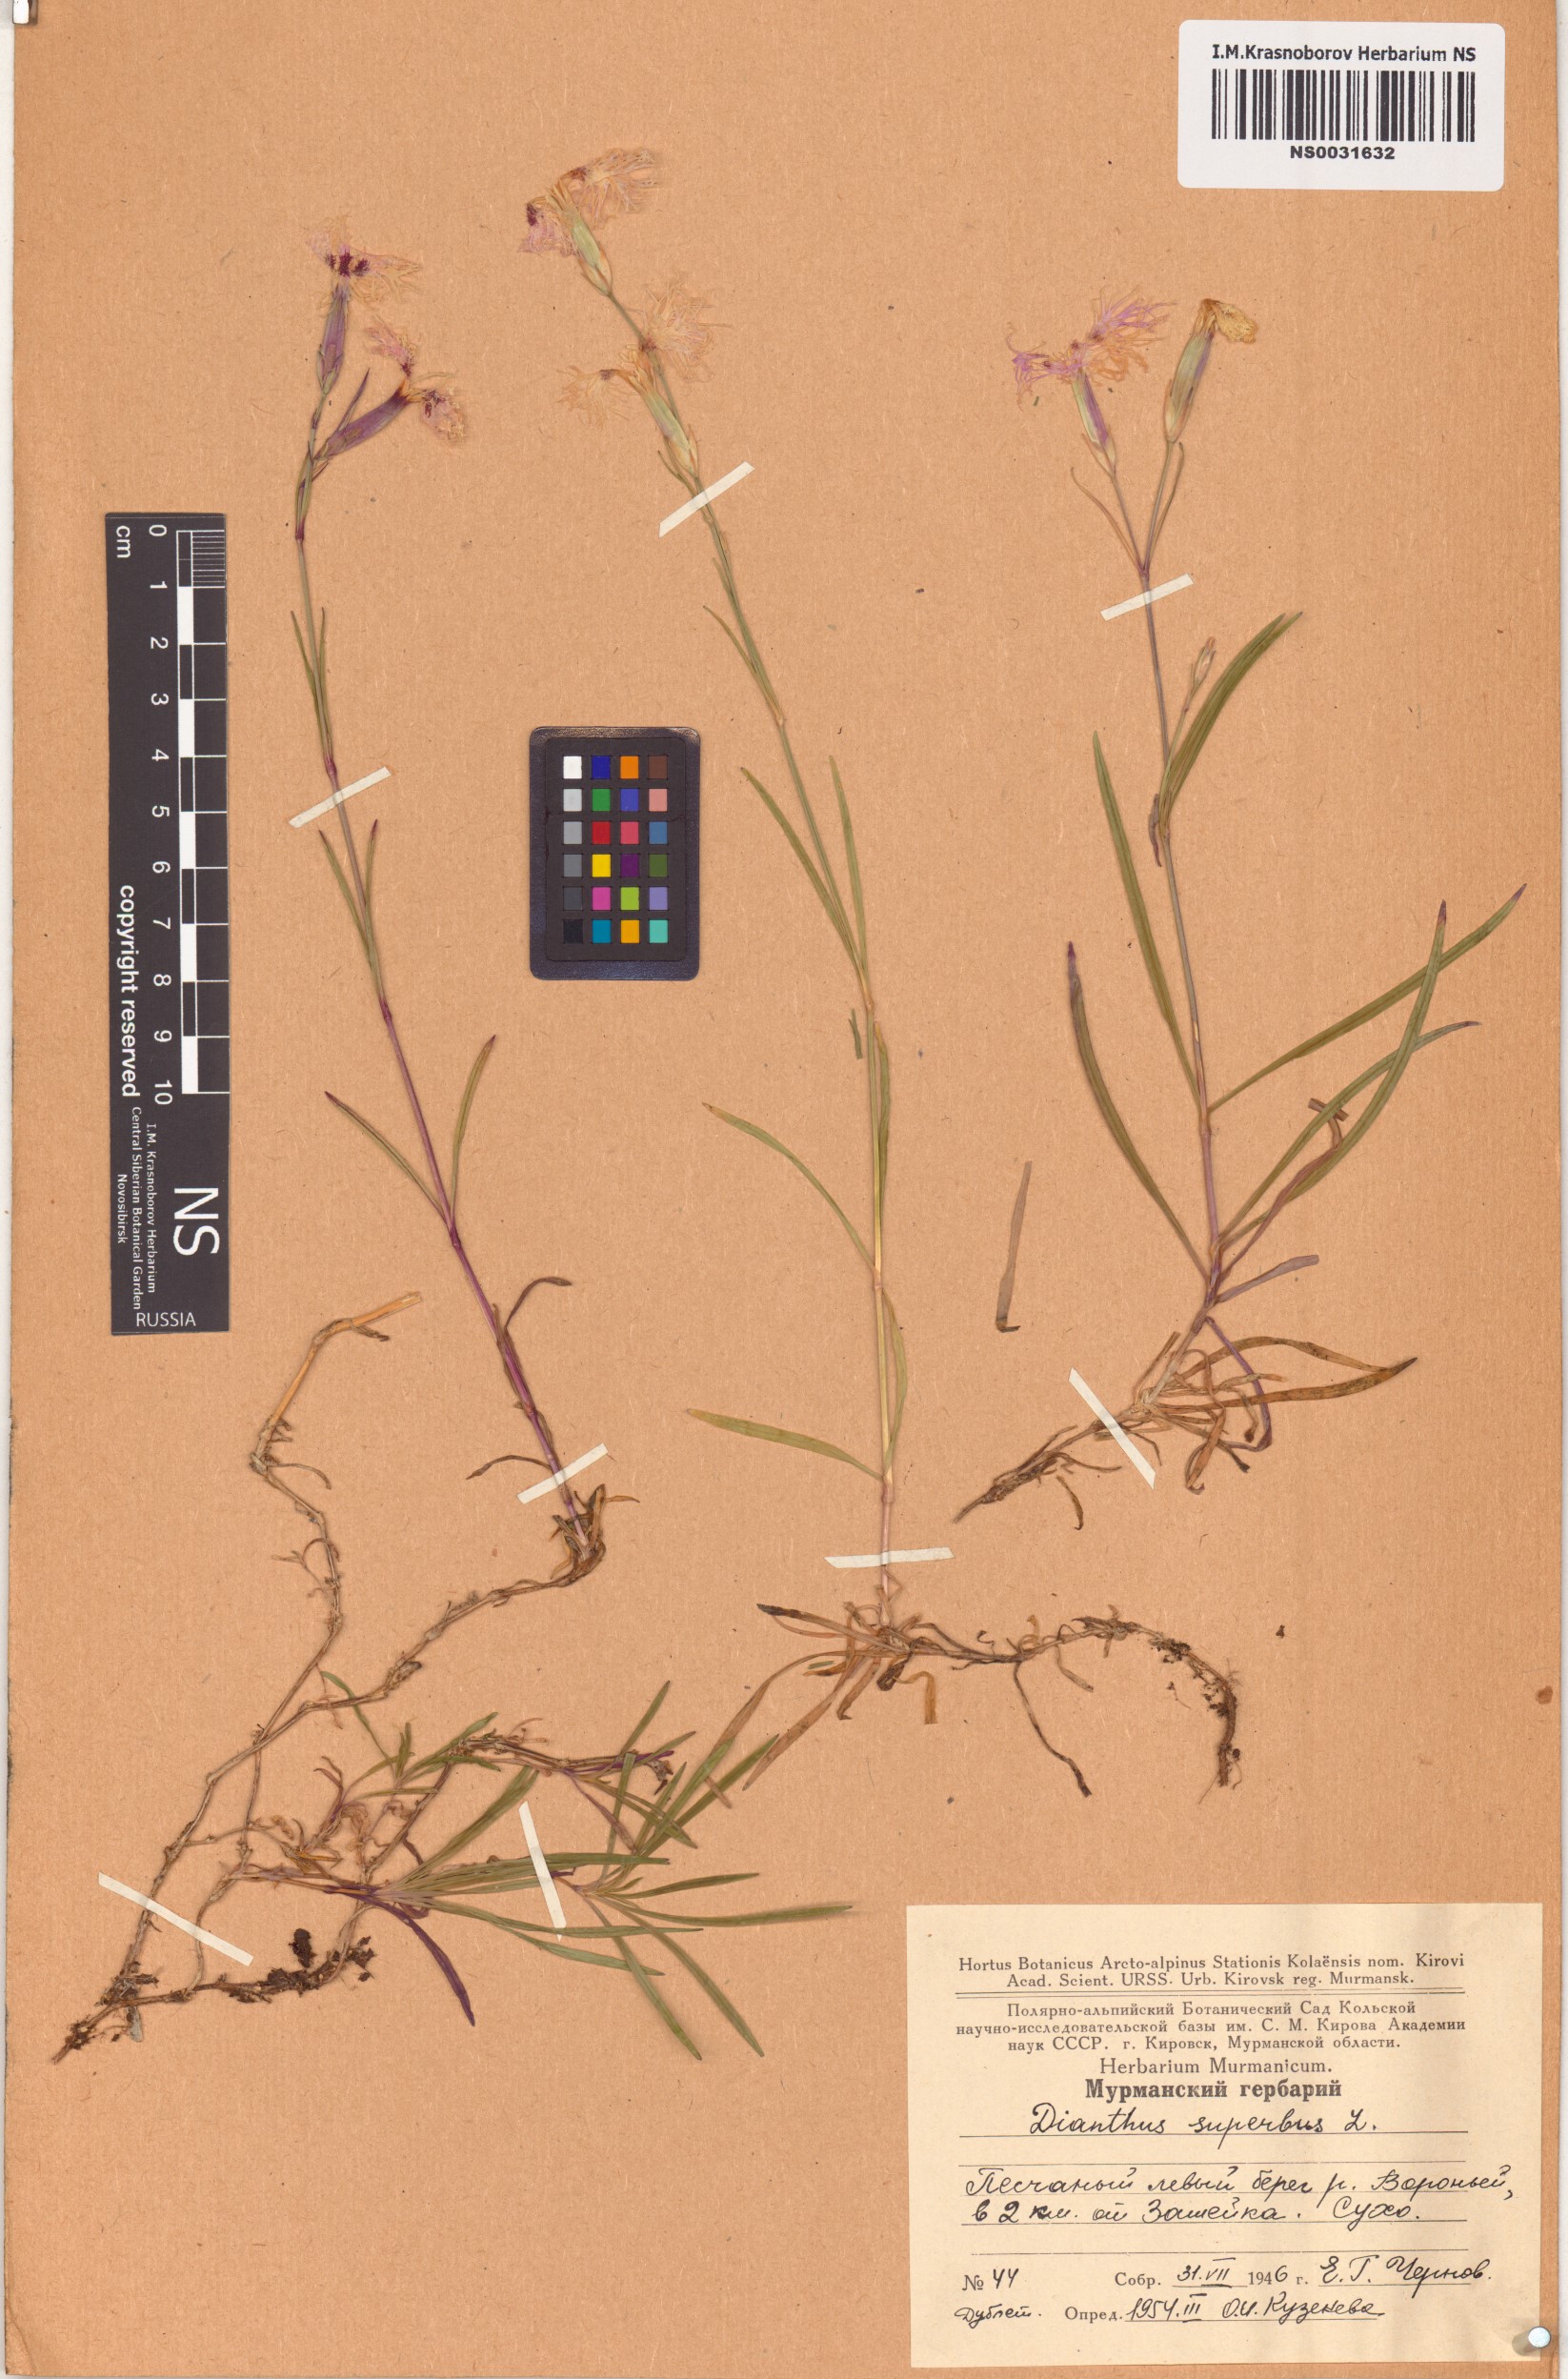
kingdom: Plantae
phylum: Tracheophyta
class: Magnoliopsida
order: Caryophyllales
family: Caryophyllaceae
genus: Dianthus
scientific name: Dianthus superbus
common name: Fringed pink
